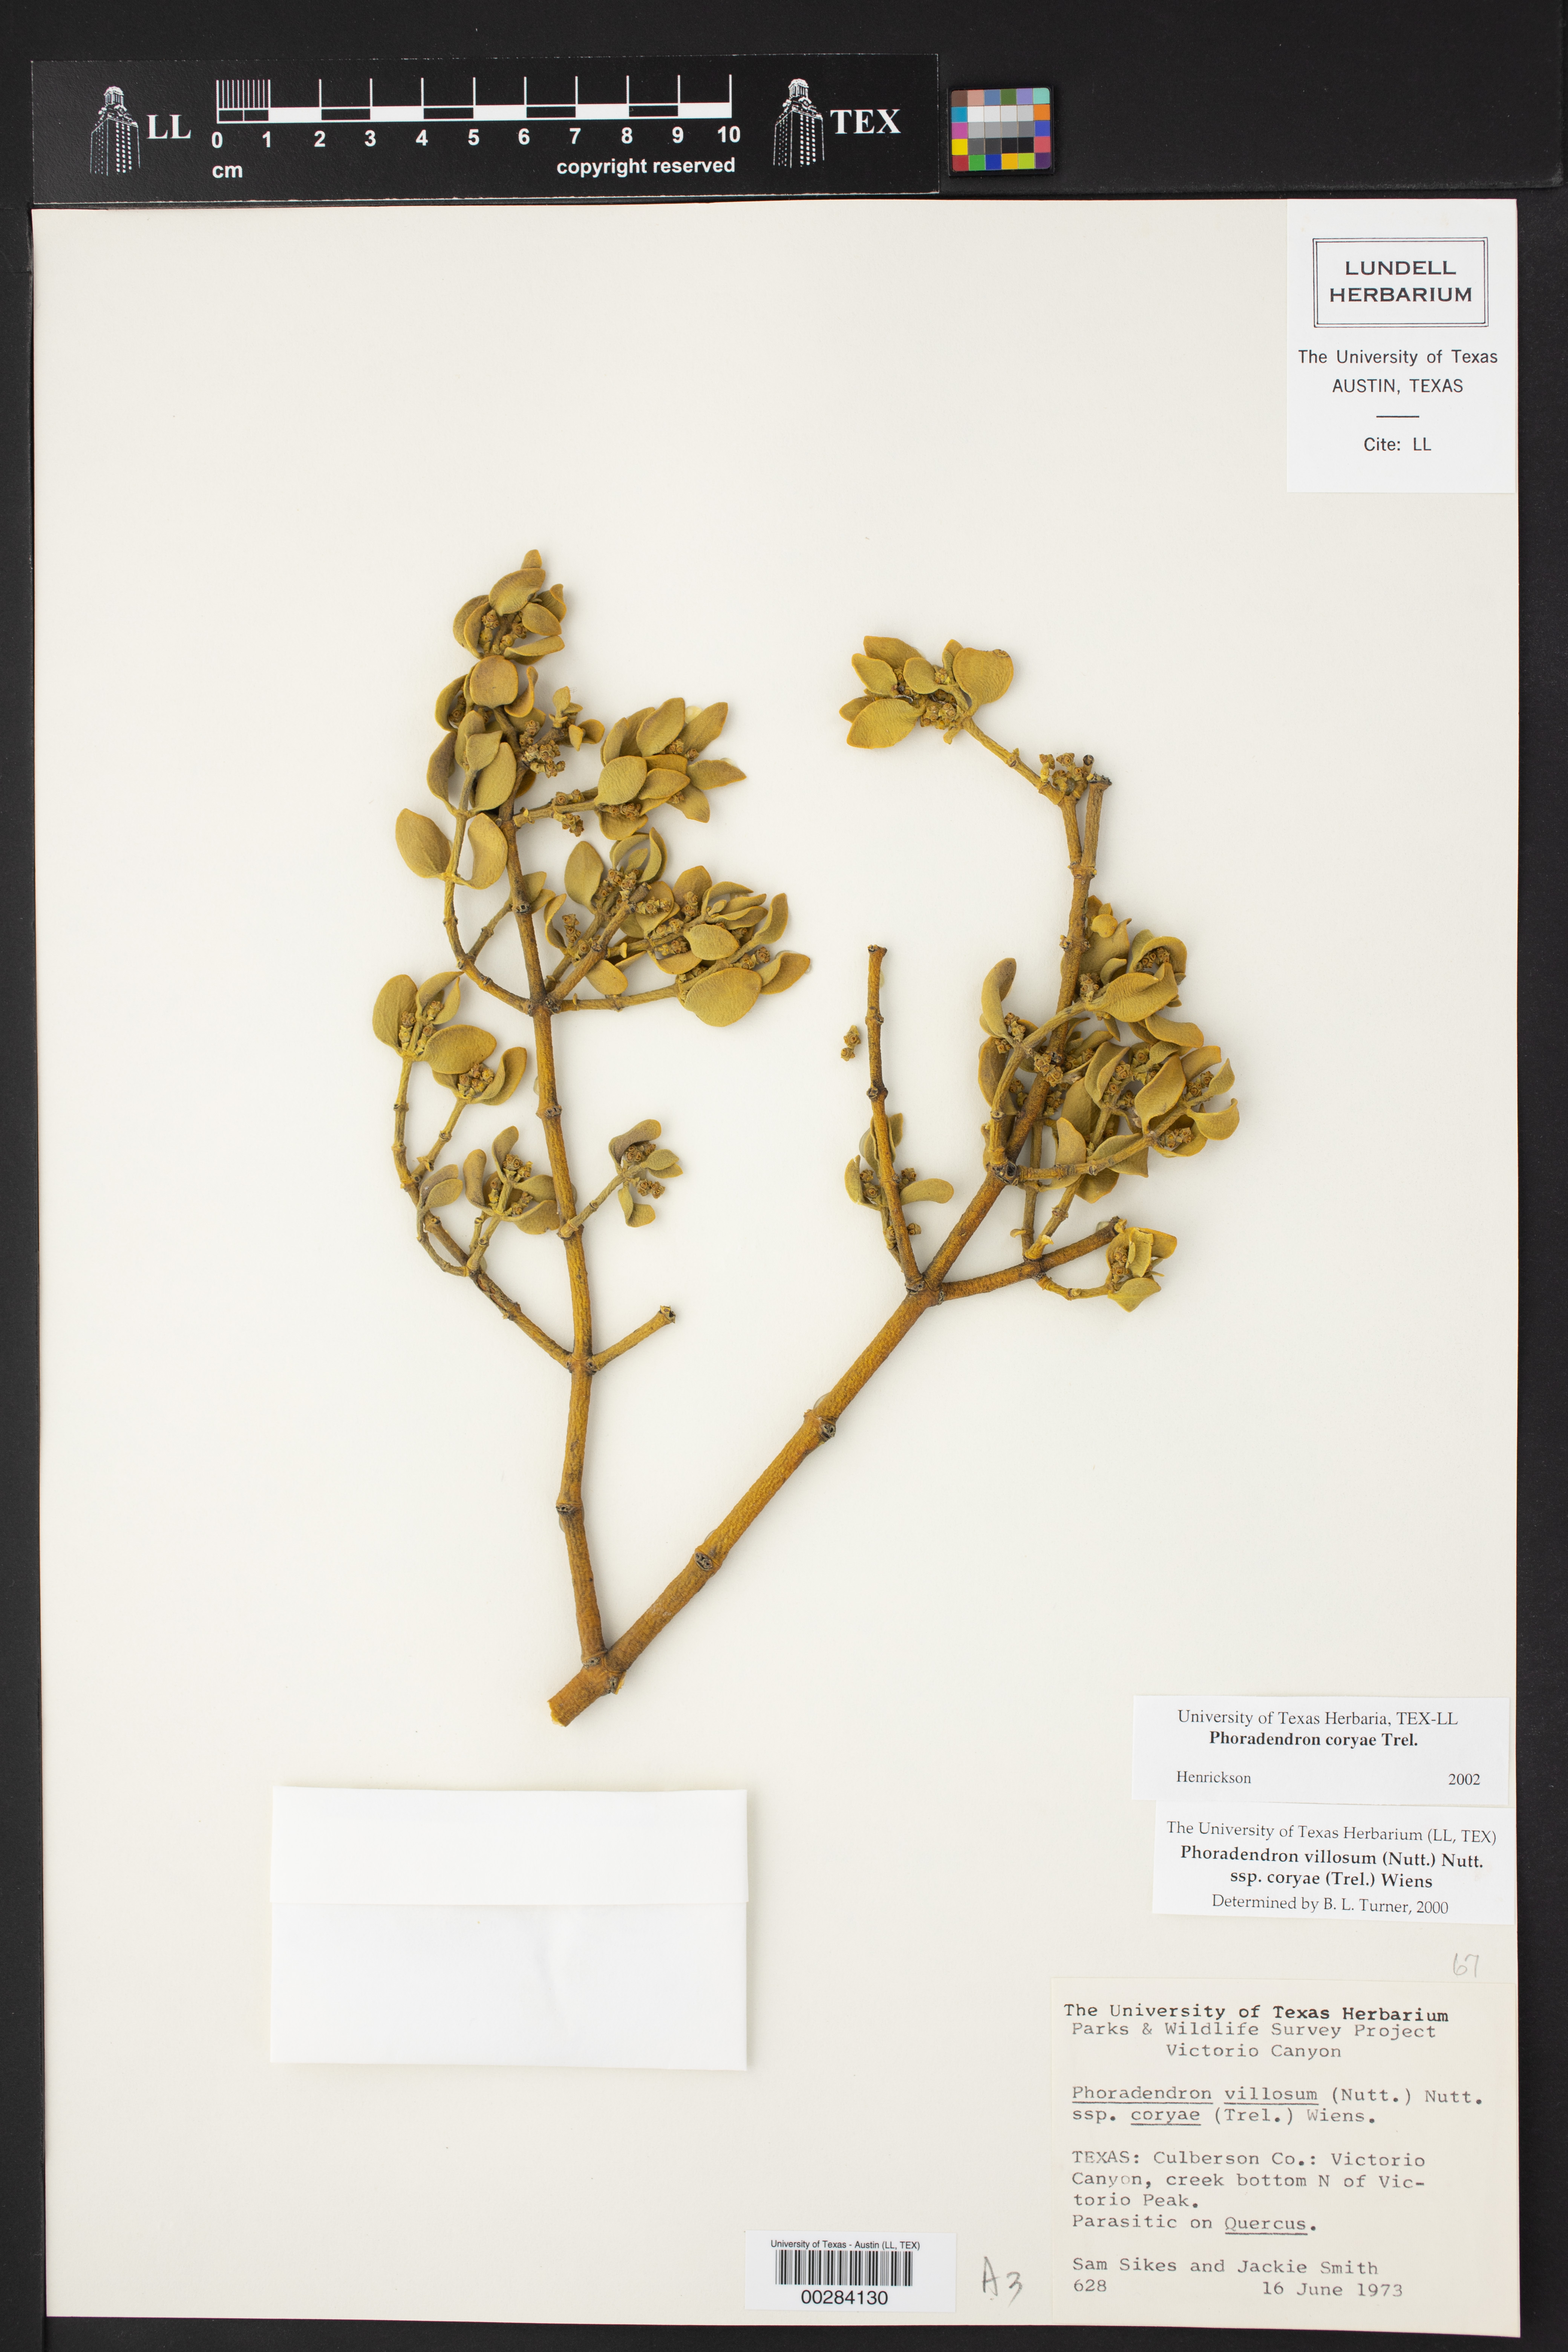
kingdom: Plantae
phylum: Tracheophyta
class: Magnoliopsida
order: Santalales
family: Viscaceae
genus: Phoradendron
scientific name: Phoradendron coryae
